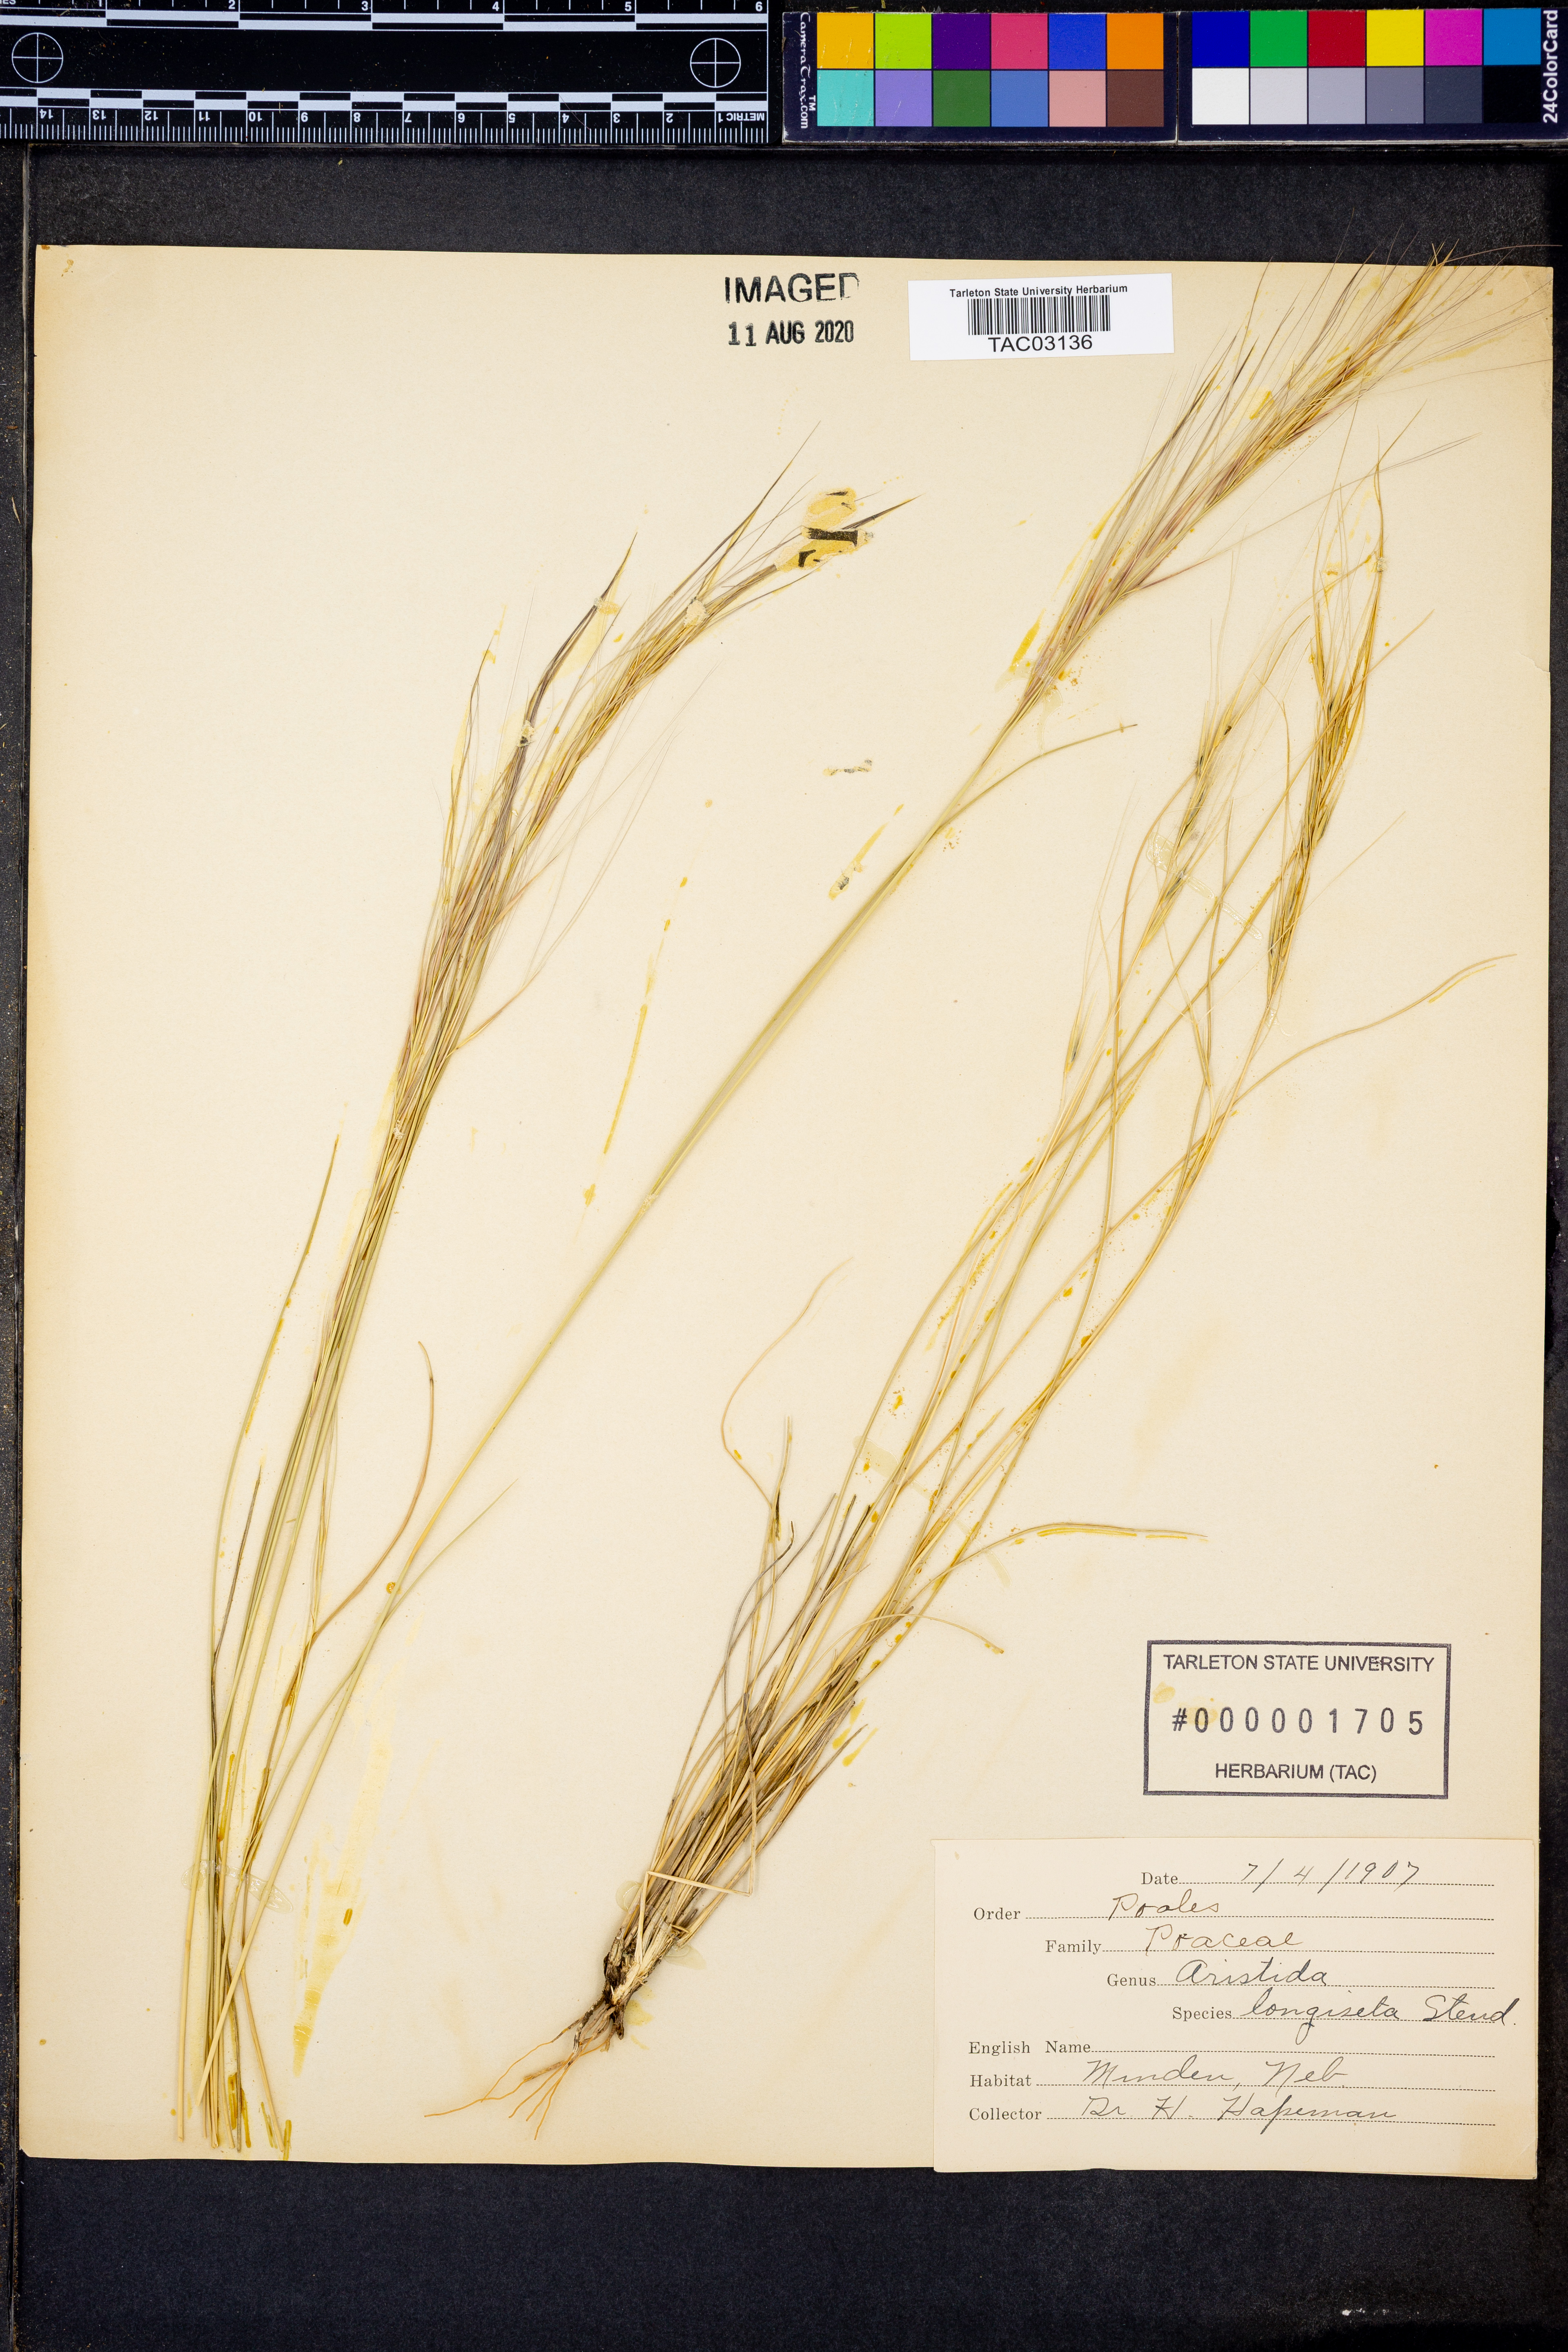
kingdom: Plantae
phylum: Tracheophyta
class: Liliopsida
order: Poales
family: Poaceae
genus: Aristida
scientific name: Aristida longiseta
